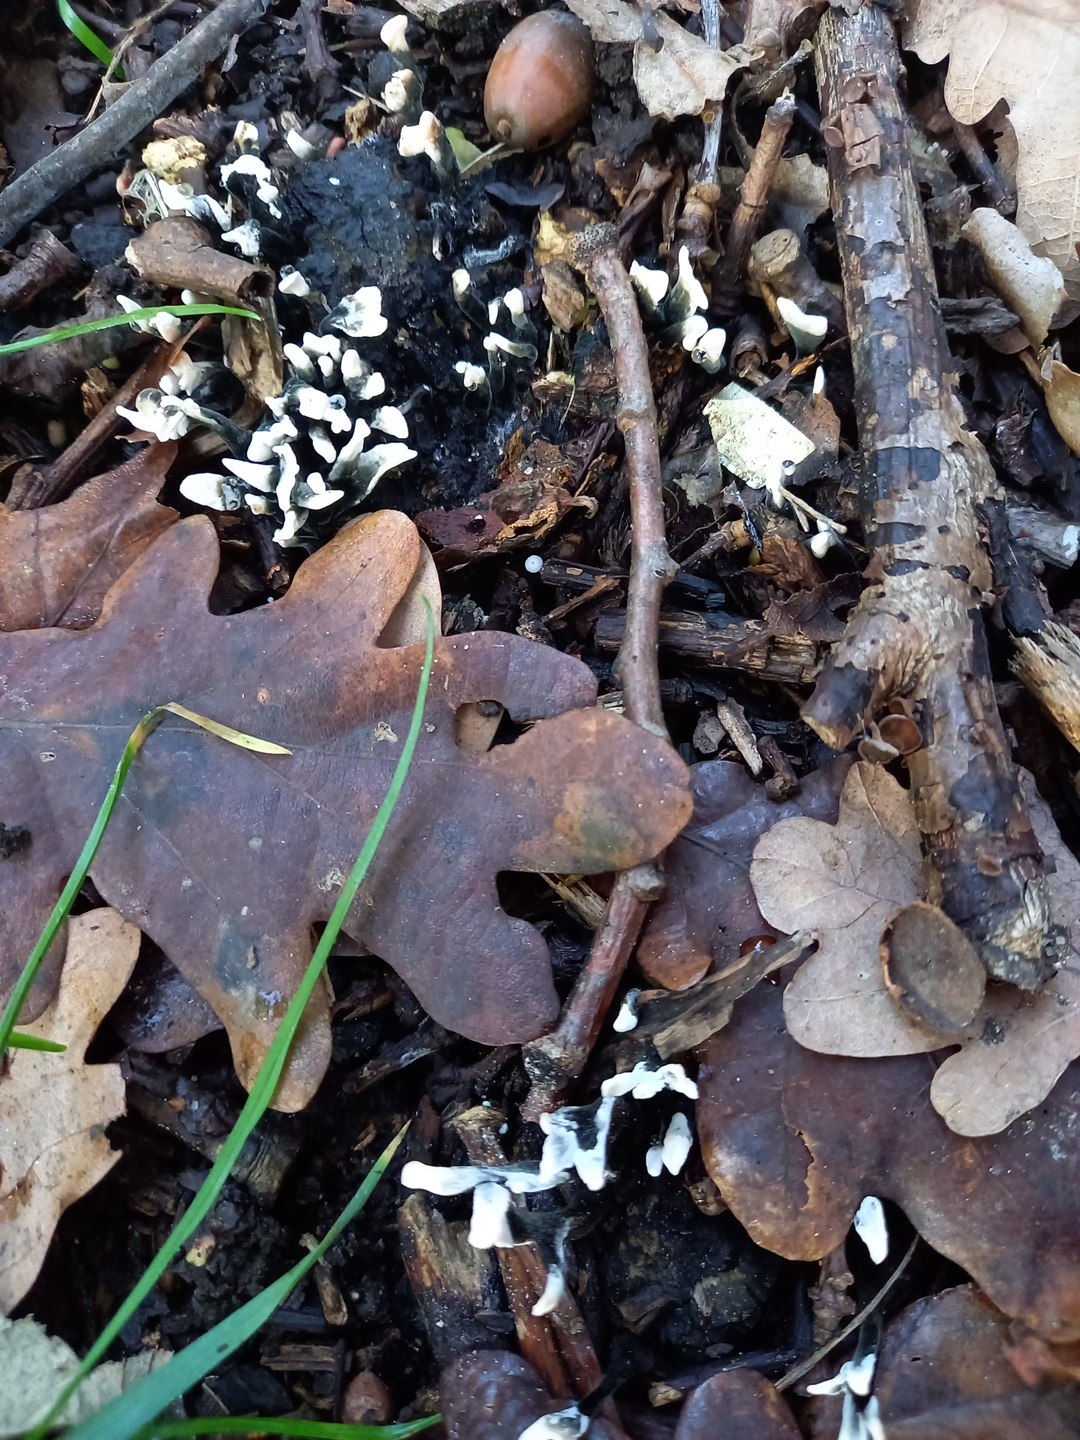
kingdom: Fungi
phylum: Ascomycota
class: Sordariomycetes
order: Xylariales
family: Xylariaceae
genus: Xylaria
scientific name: Xylaria hypoxylon
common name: grenet stødsvamp
